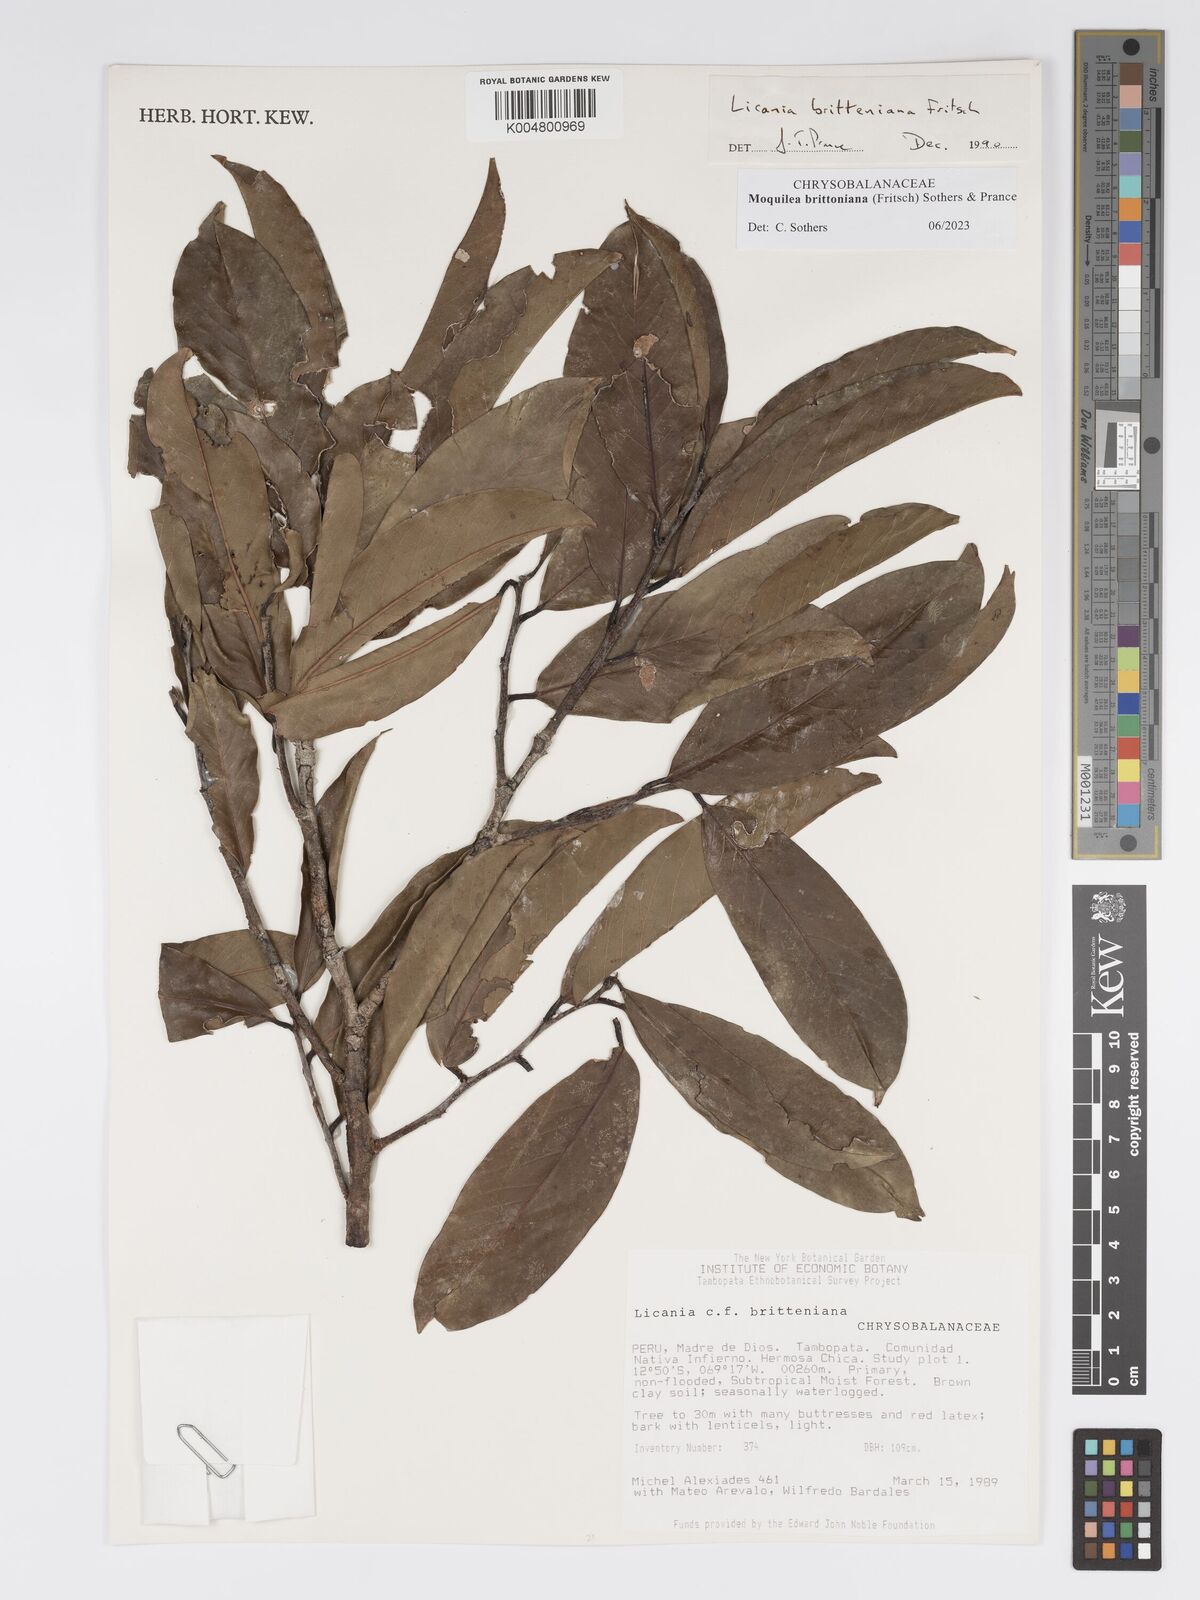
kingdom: Plantae
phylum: Tracheophyta
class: Magnoliopsida
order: Malpighiales
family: Chrysobalanaceae
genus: Moquilea
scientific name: Moquilea brittoniana
